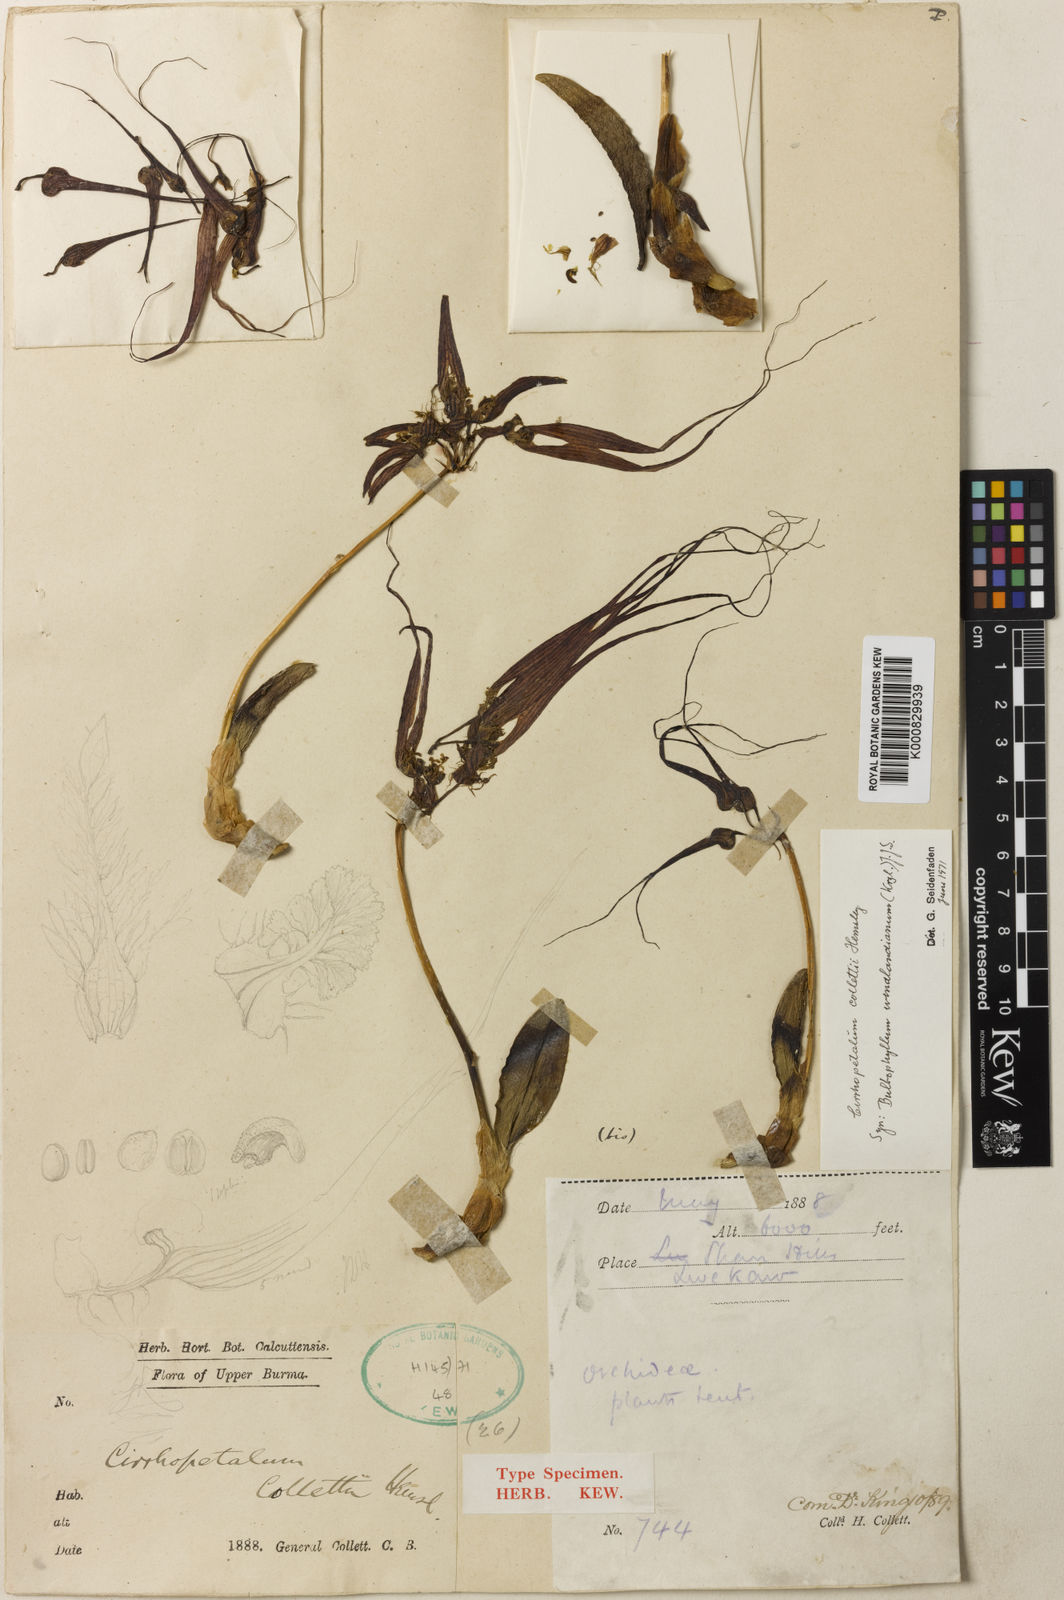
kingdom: Plantae
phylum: Tracheophyta
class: Liliopsida
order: Asparagales
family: Orchidaceae
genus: Bulbophyllum
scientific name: Bulbophyllum
